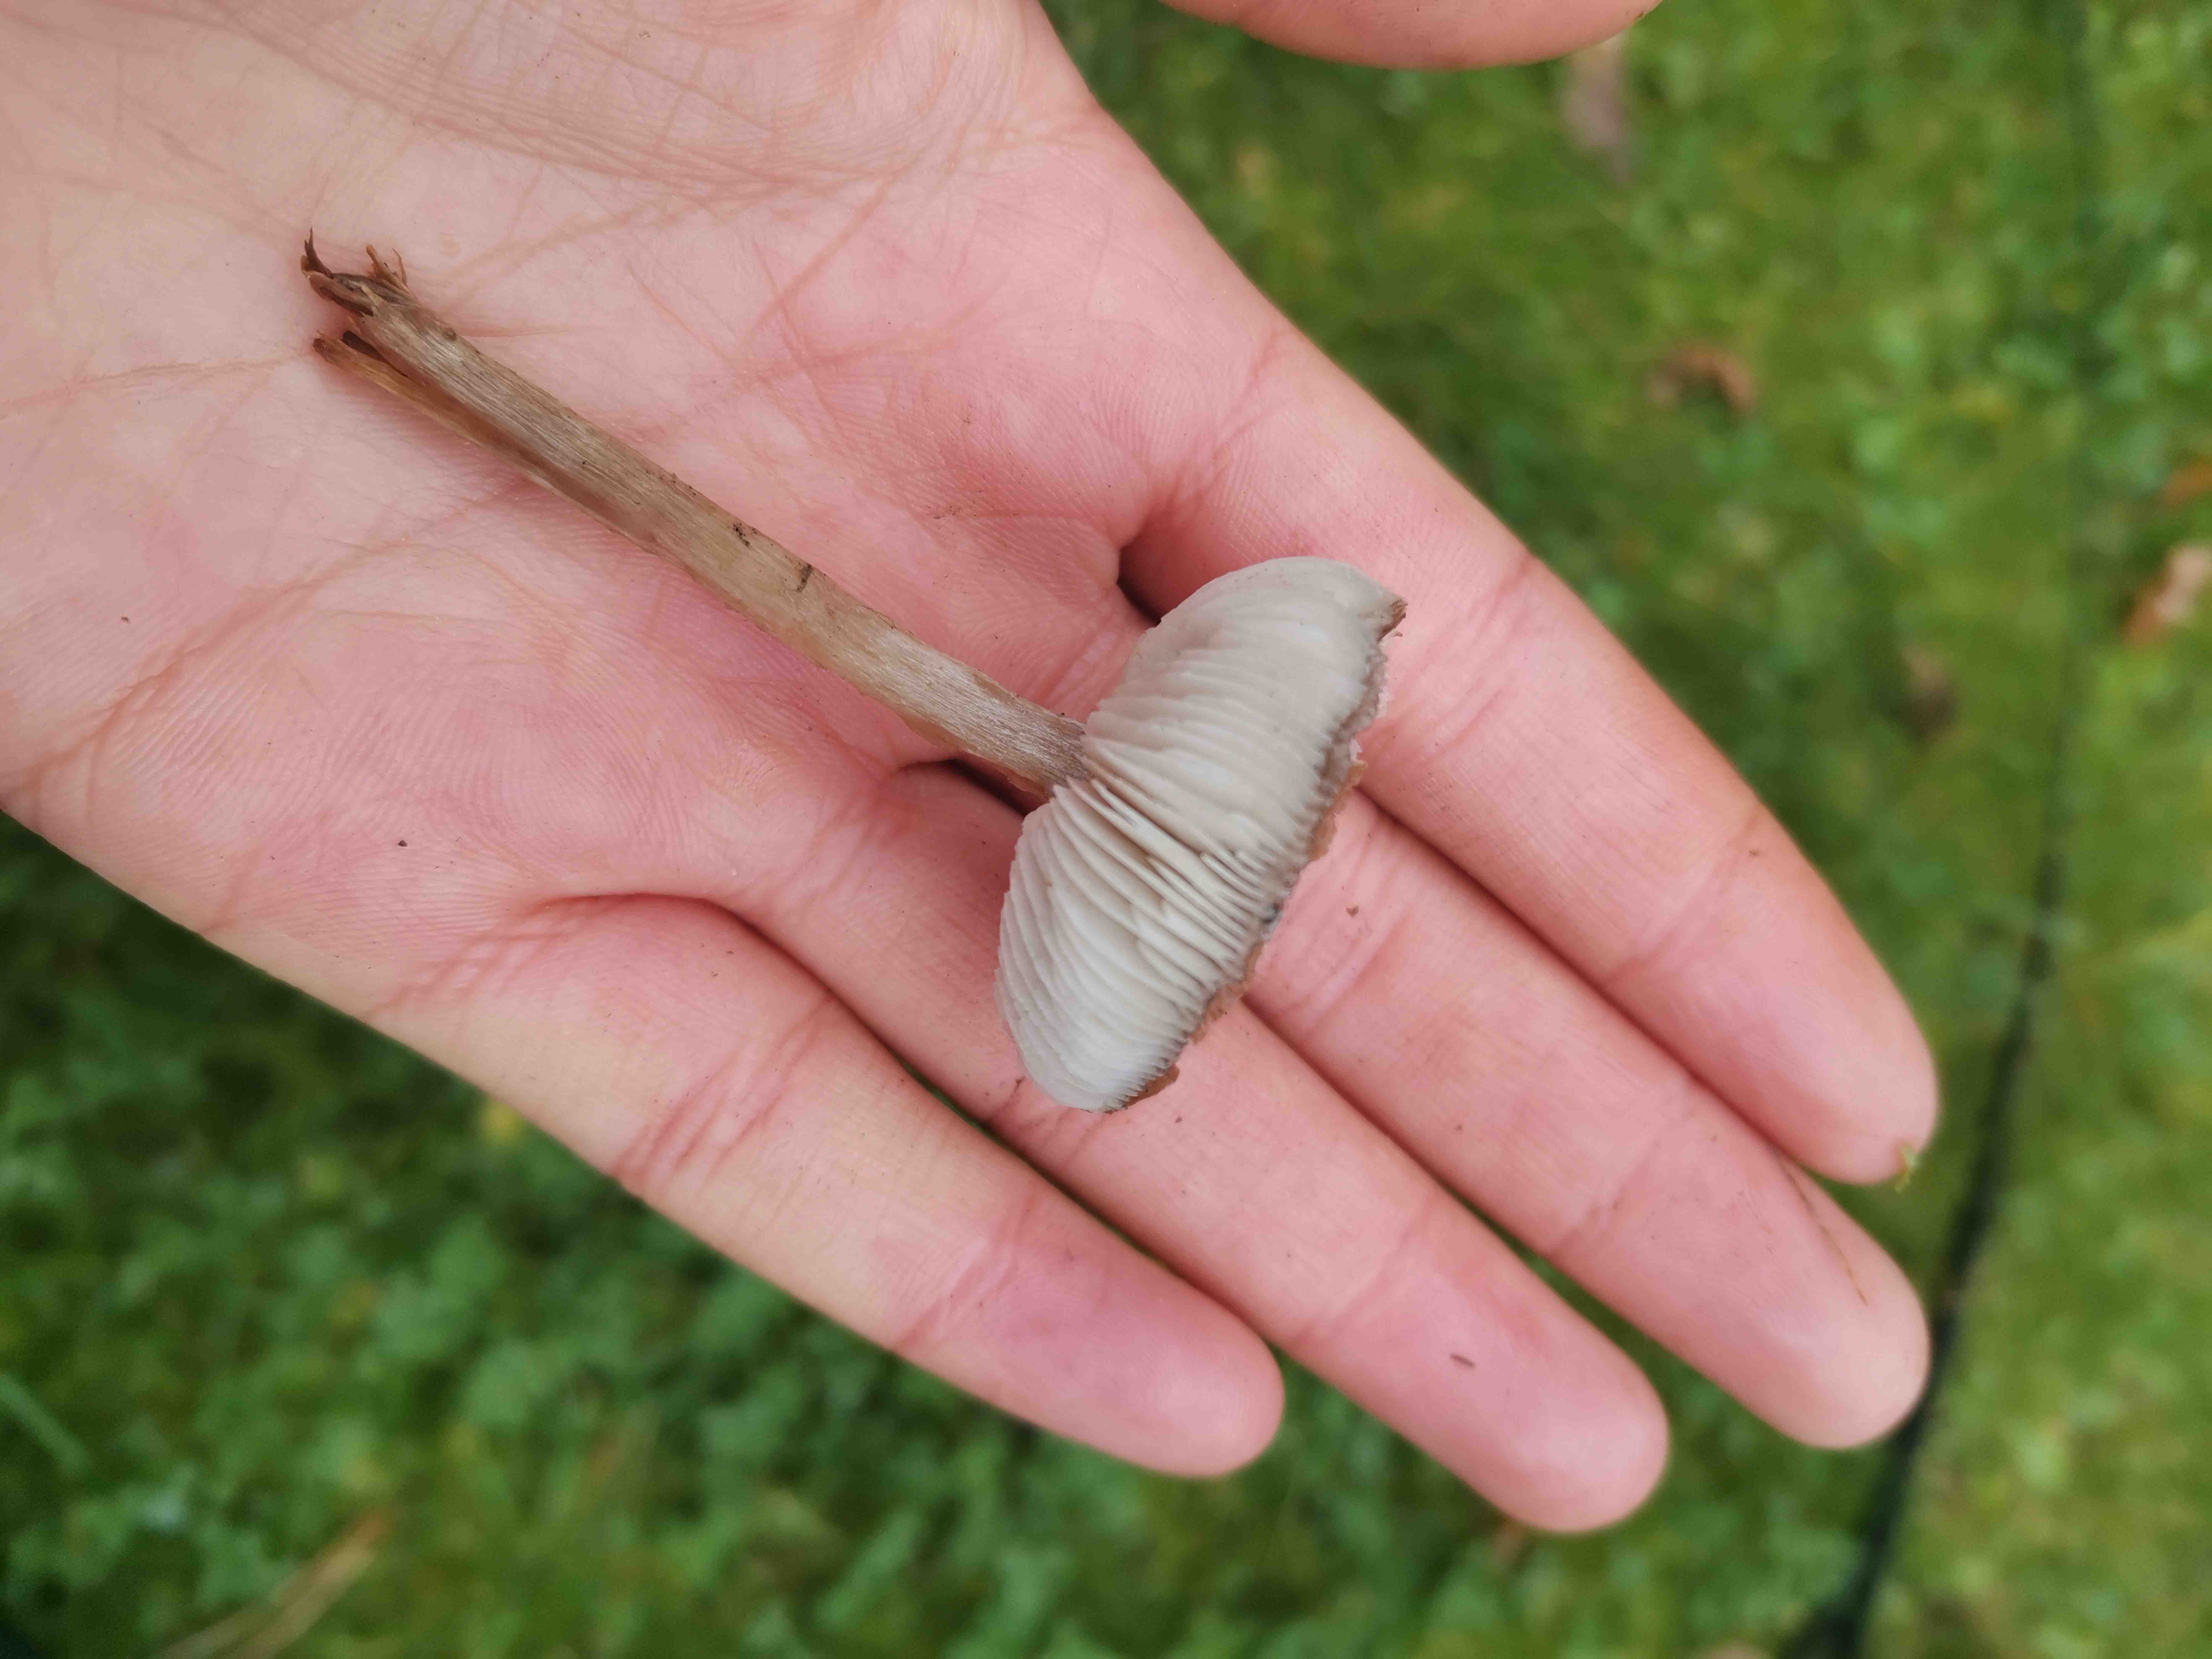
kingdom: Fungi
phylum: Basidiomycota
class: Agaricomycetes
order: Agaricales
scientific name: Agaricales
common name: champignonordenen
